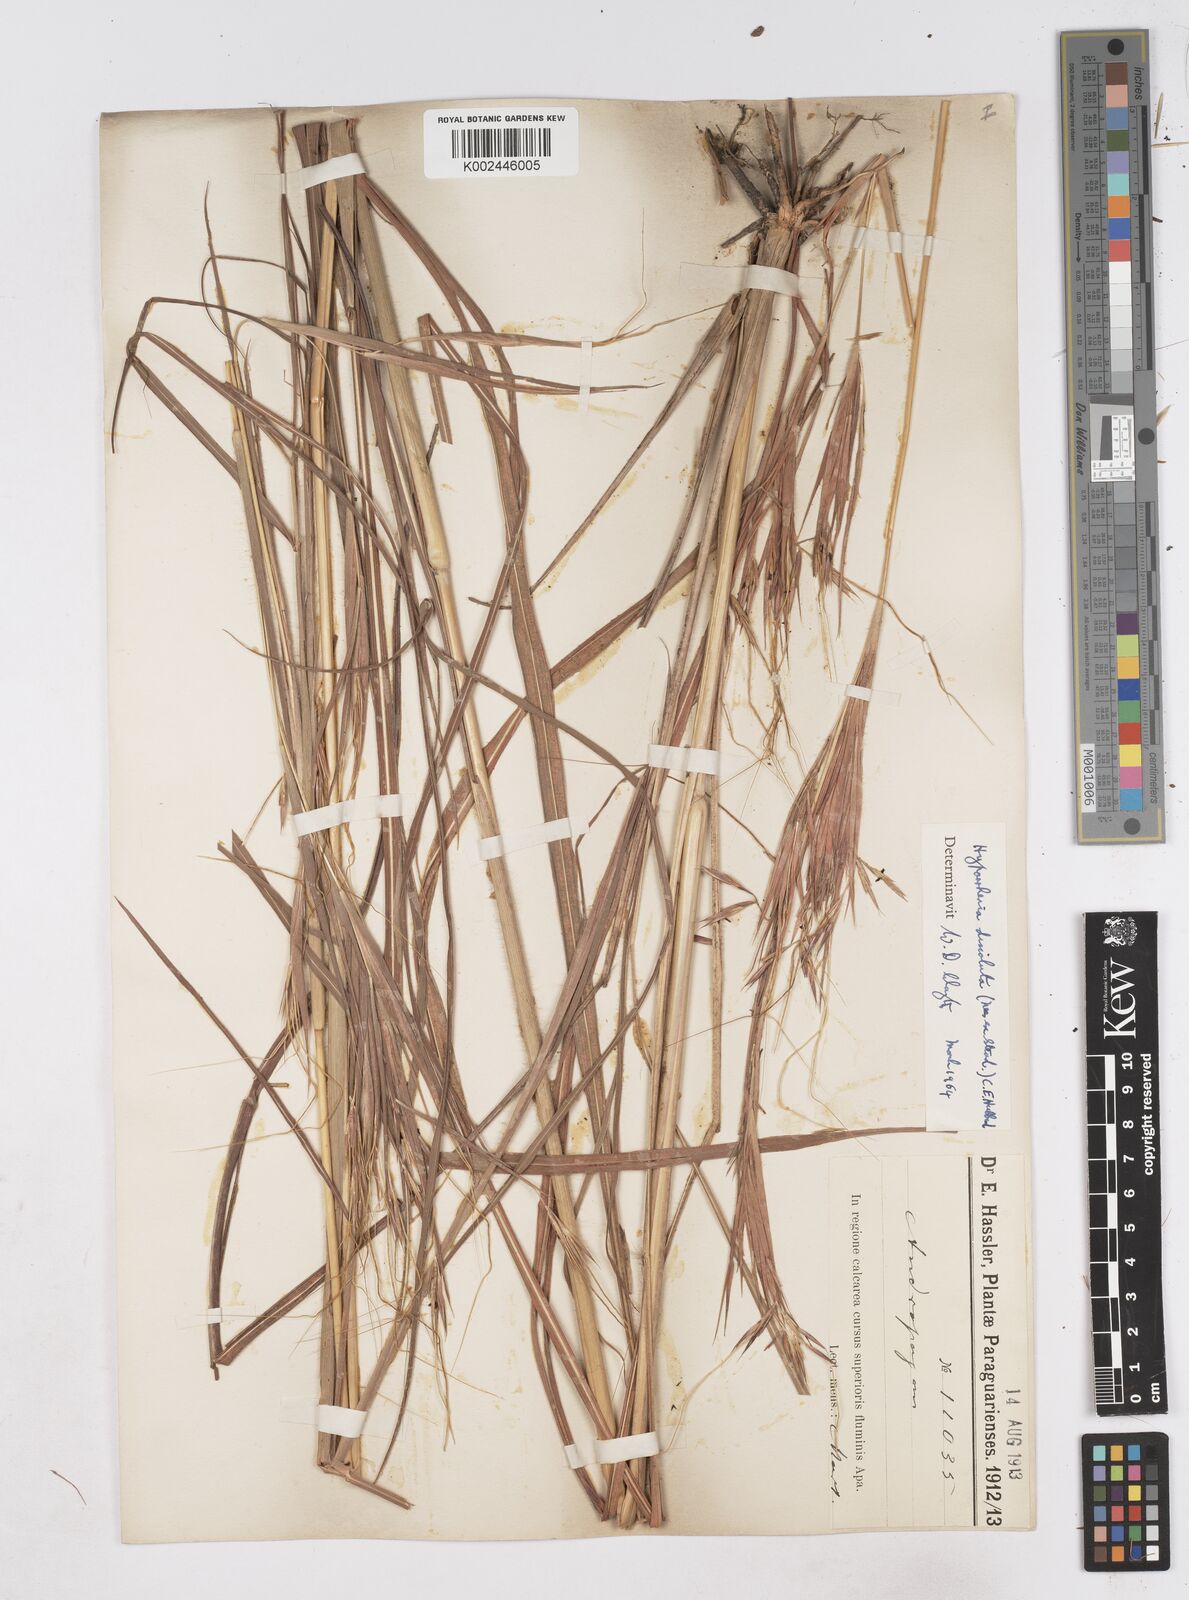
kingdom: Plantae
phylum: Tracheophyta
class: Liliopsida
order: Poales
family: Poaceae
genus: Hyperthelia
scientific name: Hyperthelia dissoluta
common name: Yellow thatching grass
